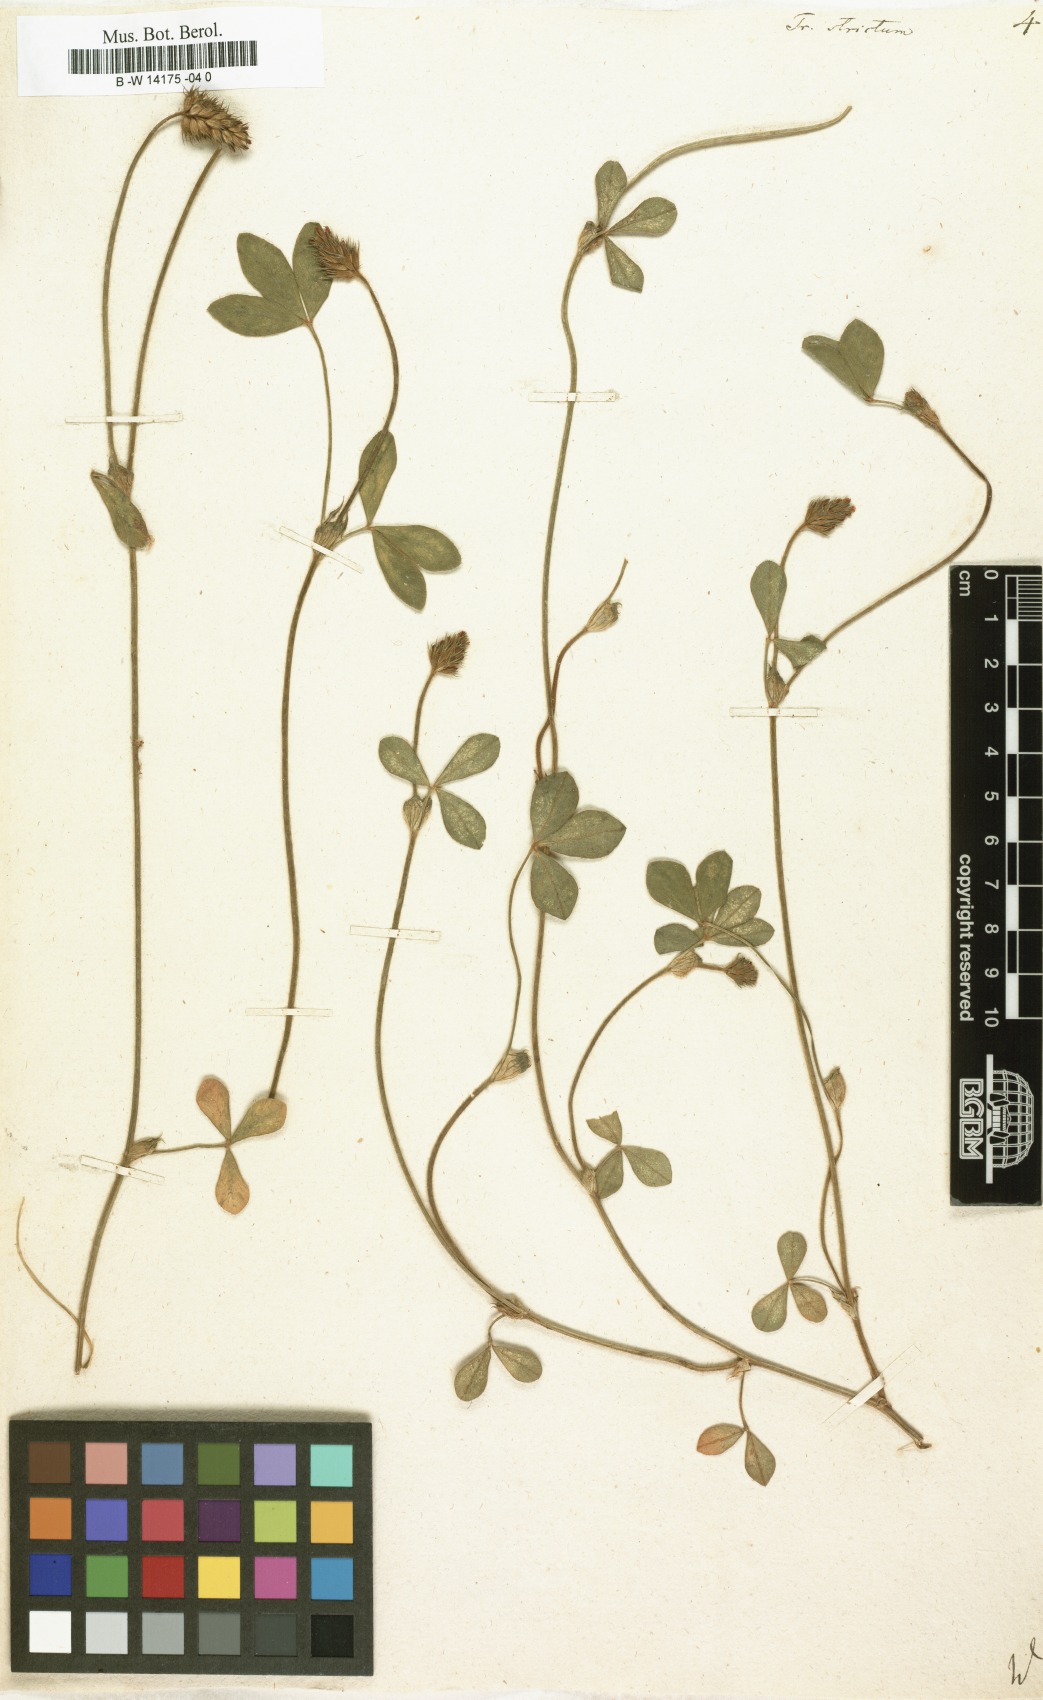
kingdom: Plantae
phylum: Tracheophyta
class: Magnoliopsida
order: Fabales
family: Fabaceae
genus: Trifolium
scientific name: Trifolium strictum
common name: Upright clover
